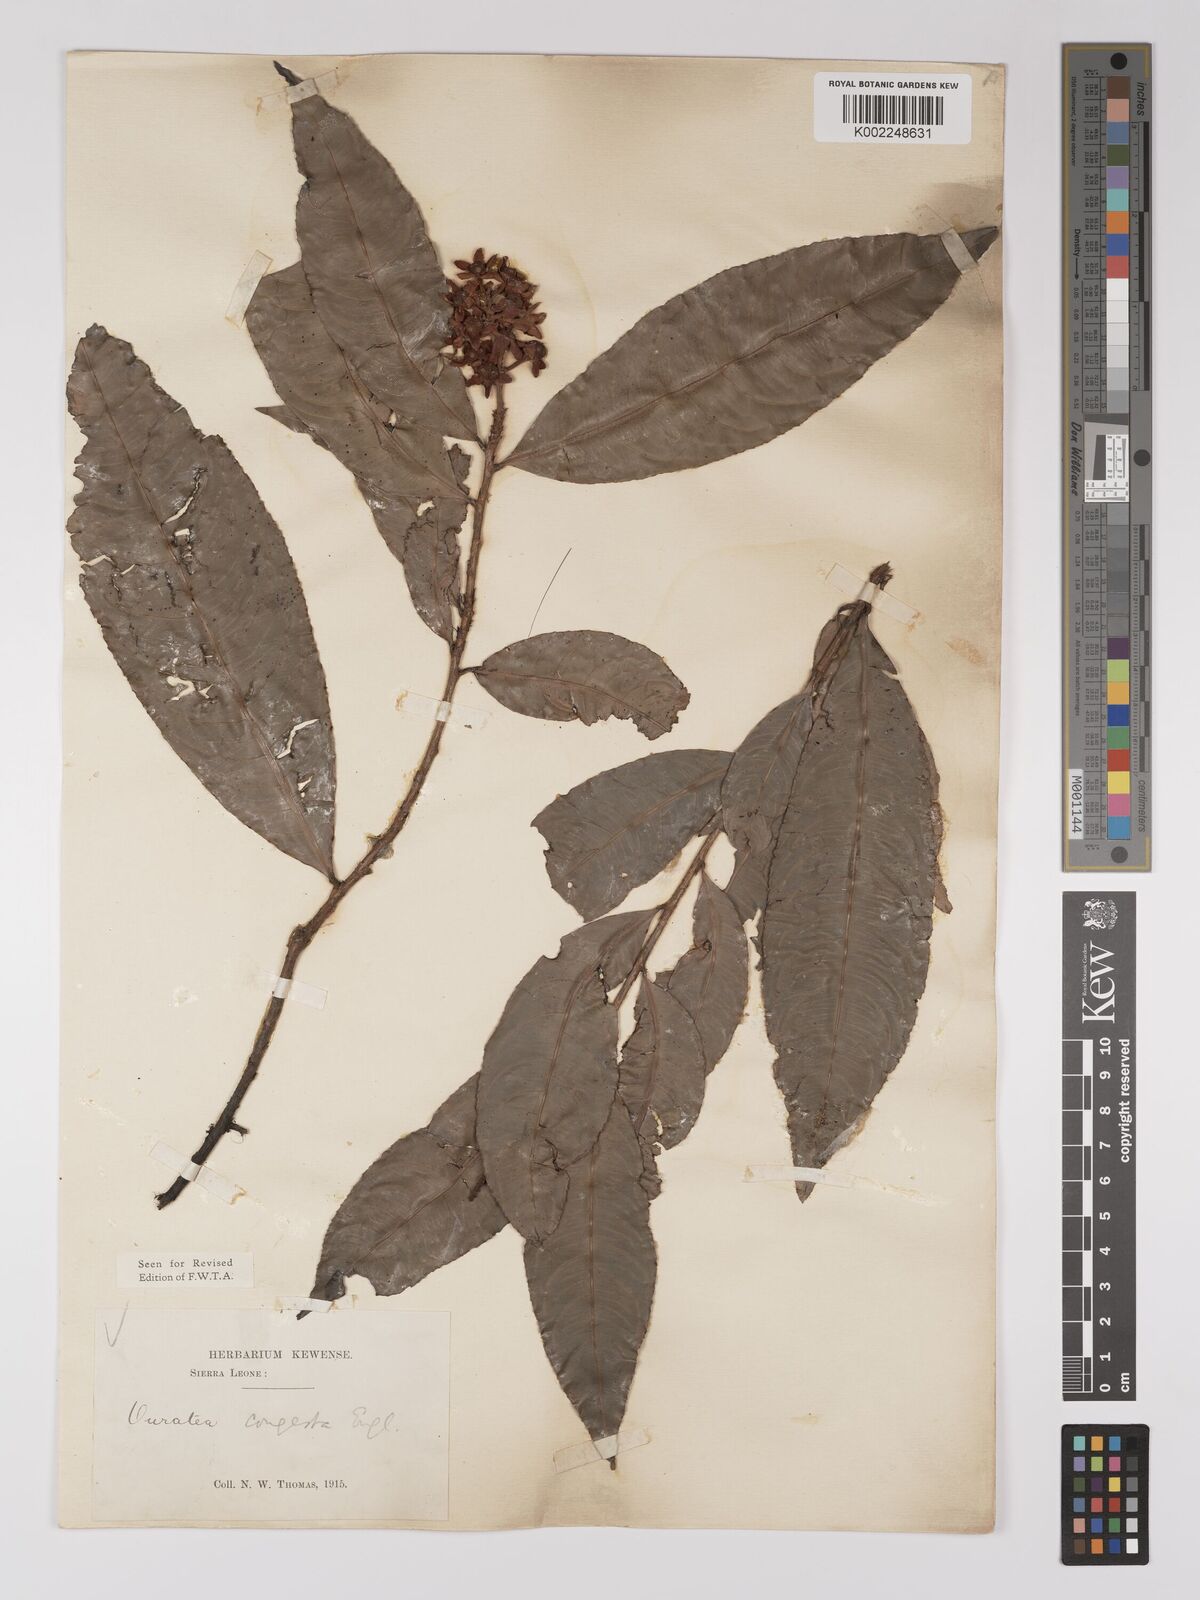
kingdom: Plantae
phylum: Tracheophyta
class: Magnoliopsida
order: Malpighiales
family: Ochnaceae
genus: Campylospermum
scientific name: Campylospermum congestum
